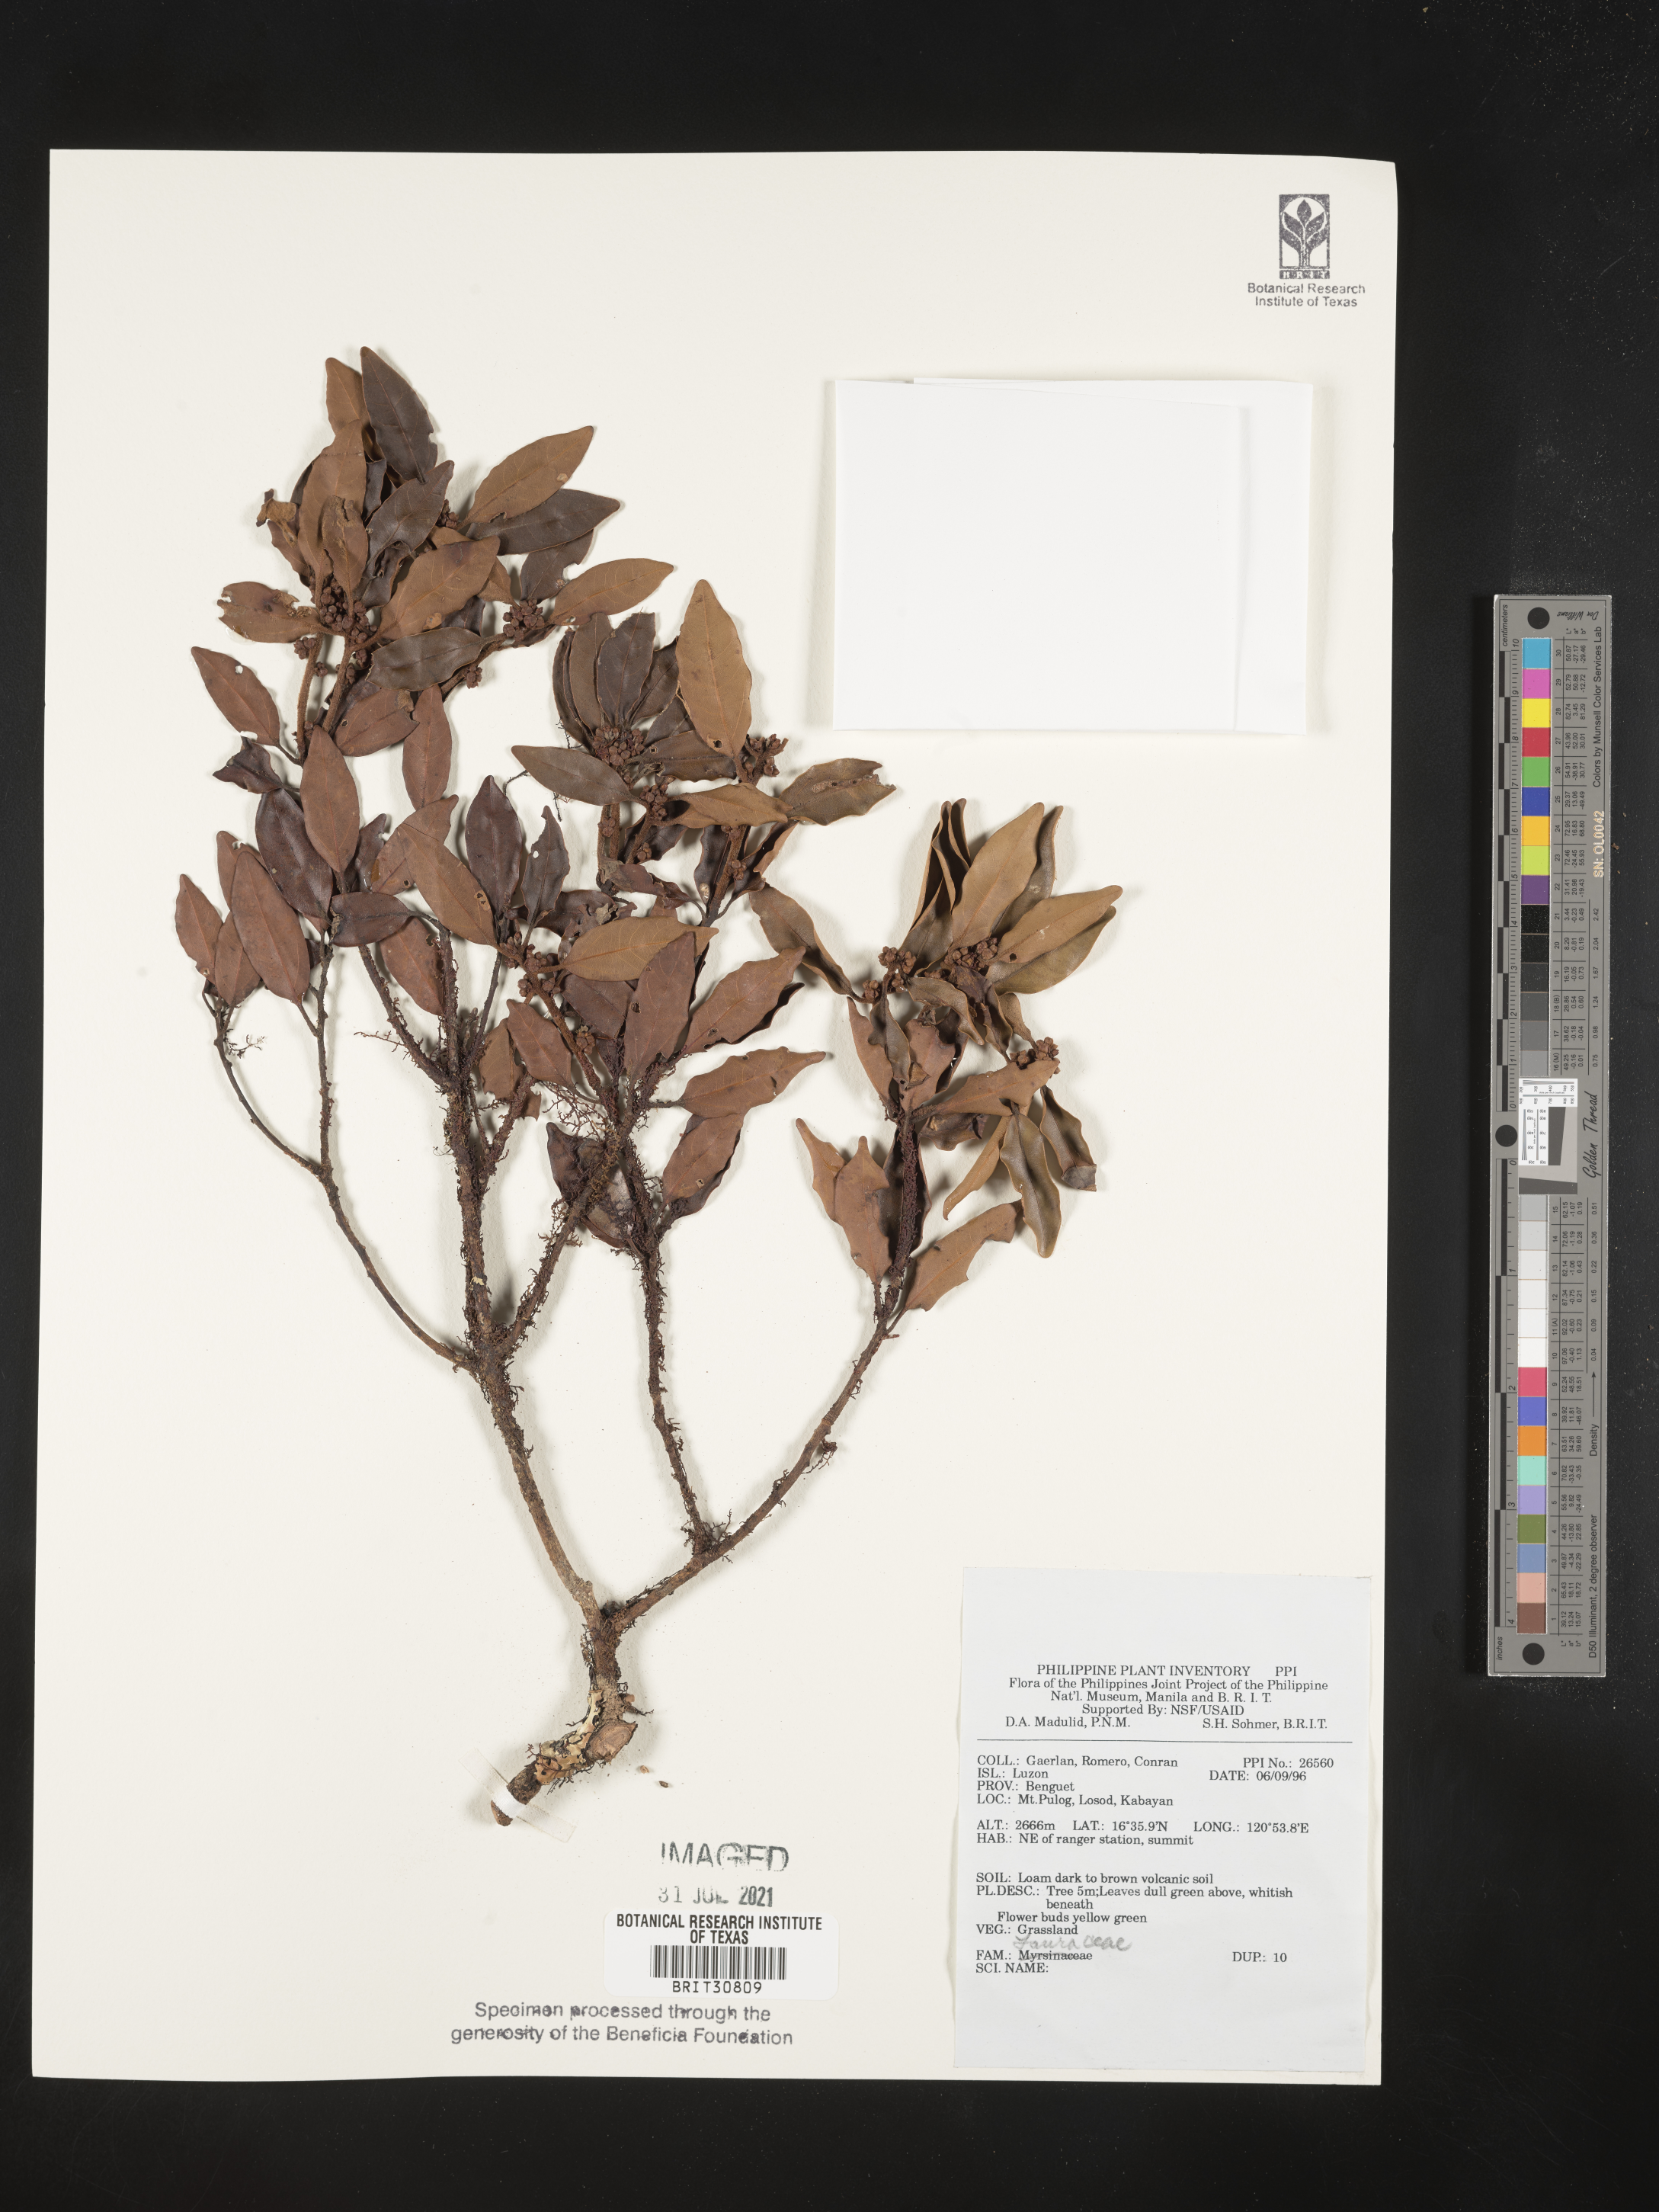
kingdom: Plantae
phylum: Tracheophyta
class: Magnoliopsida
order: Laurales
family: Lauraceae
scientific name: Lauraceae
